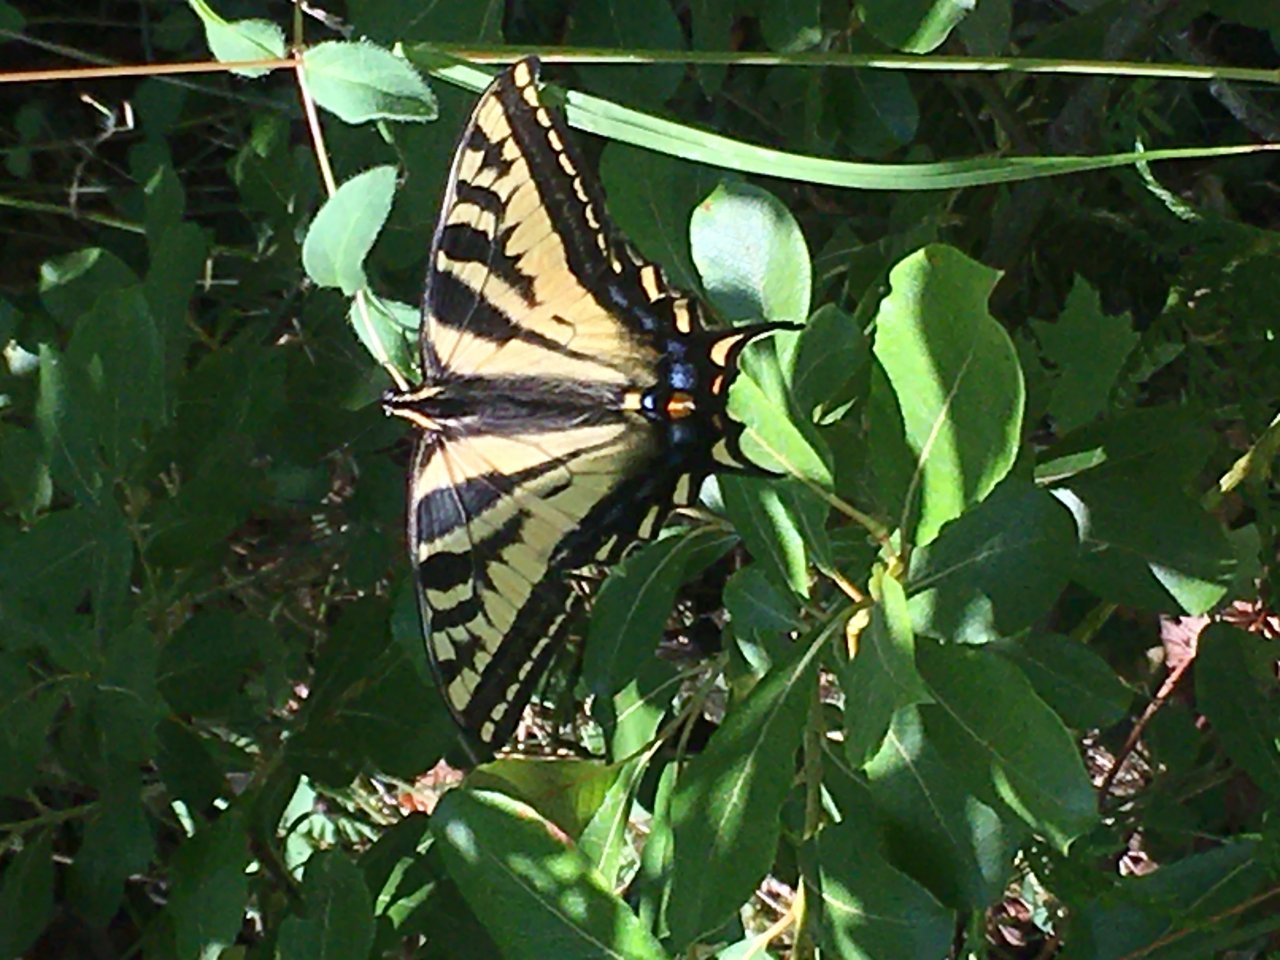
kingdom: Animalia
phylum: Arthropoda
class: Insecta
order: Lepidoptera
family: Papilionidae
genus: Pterourus
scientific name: Pterourus rutulus
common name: Western Tiger Swallowtail
